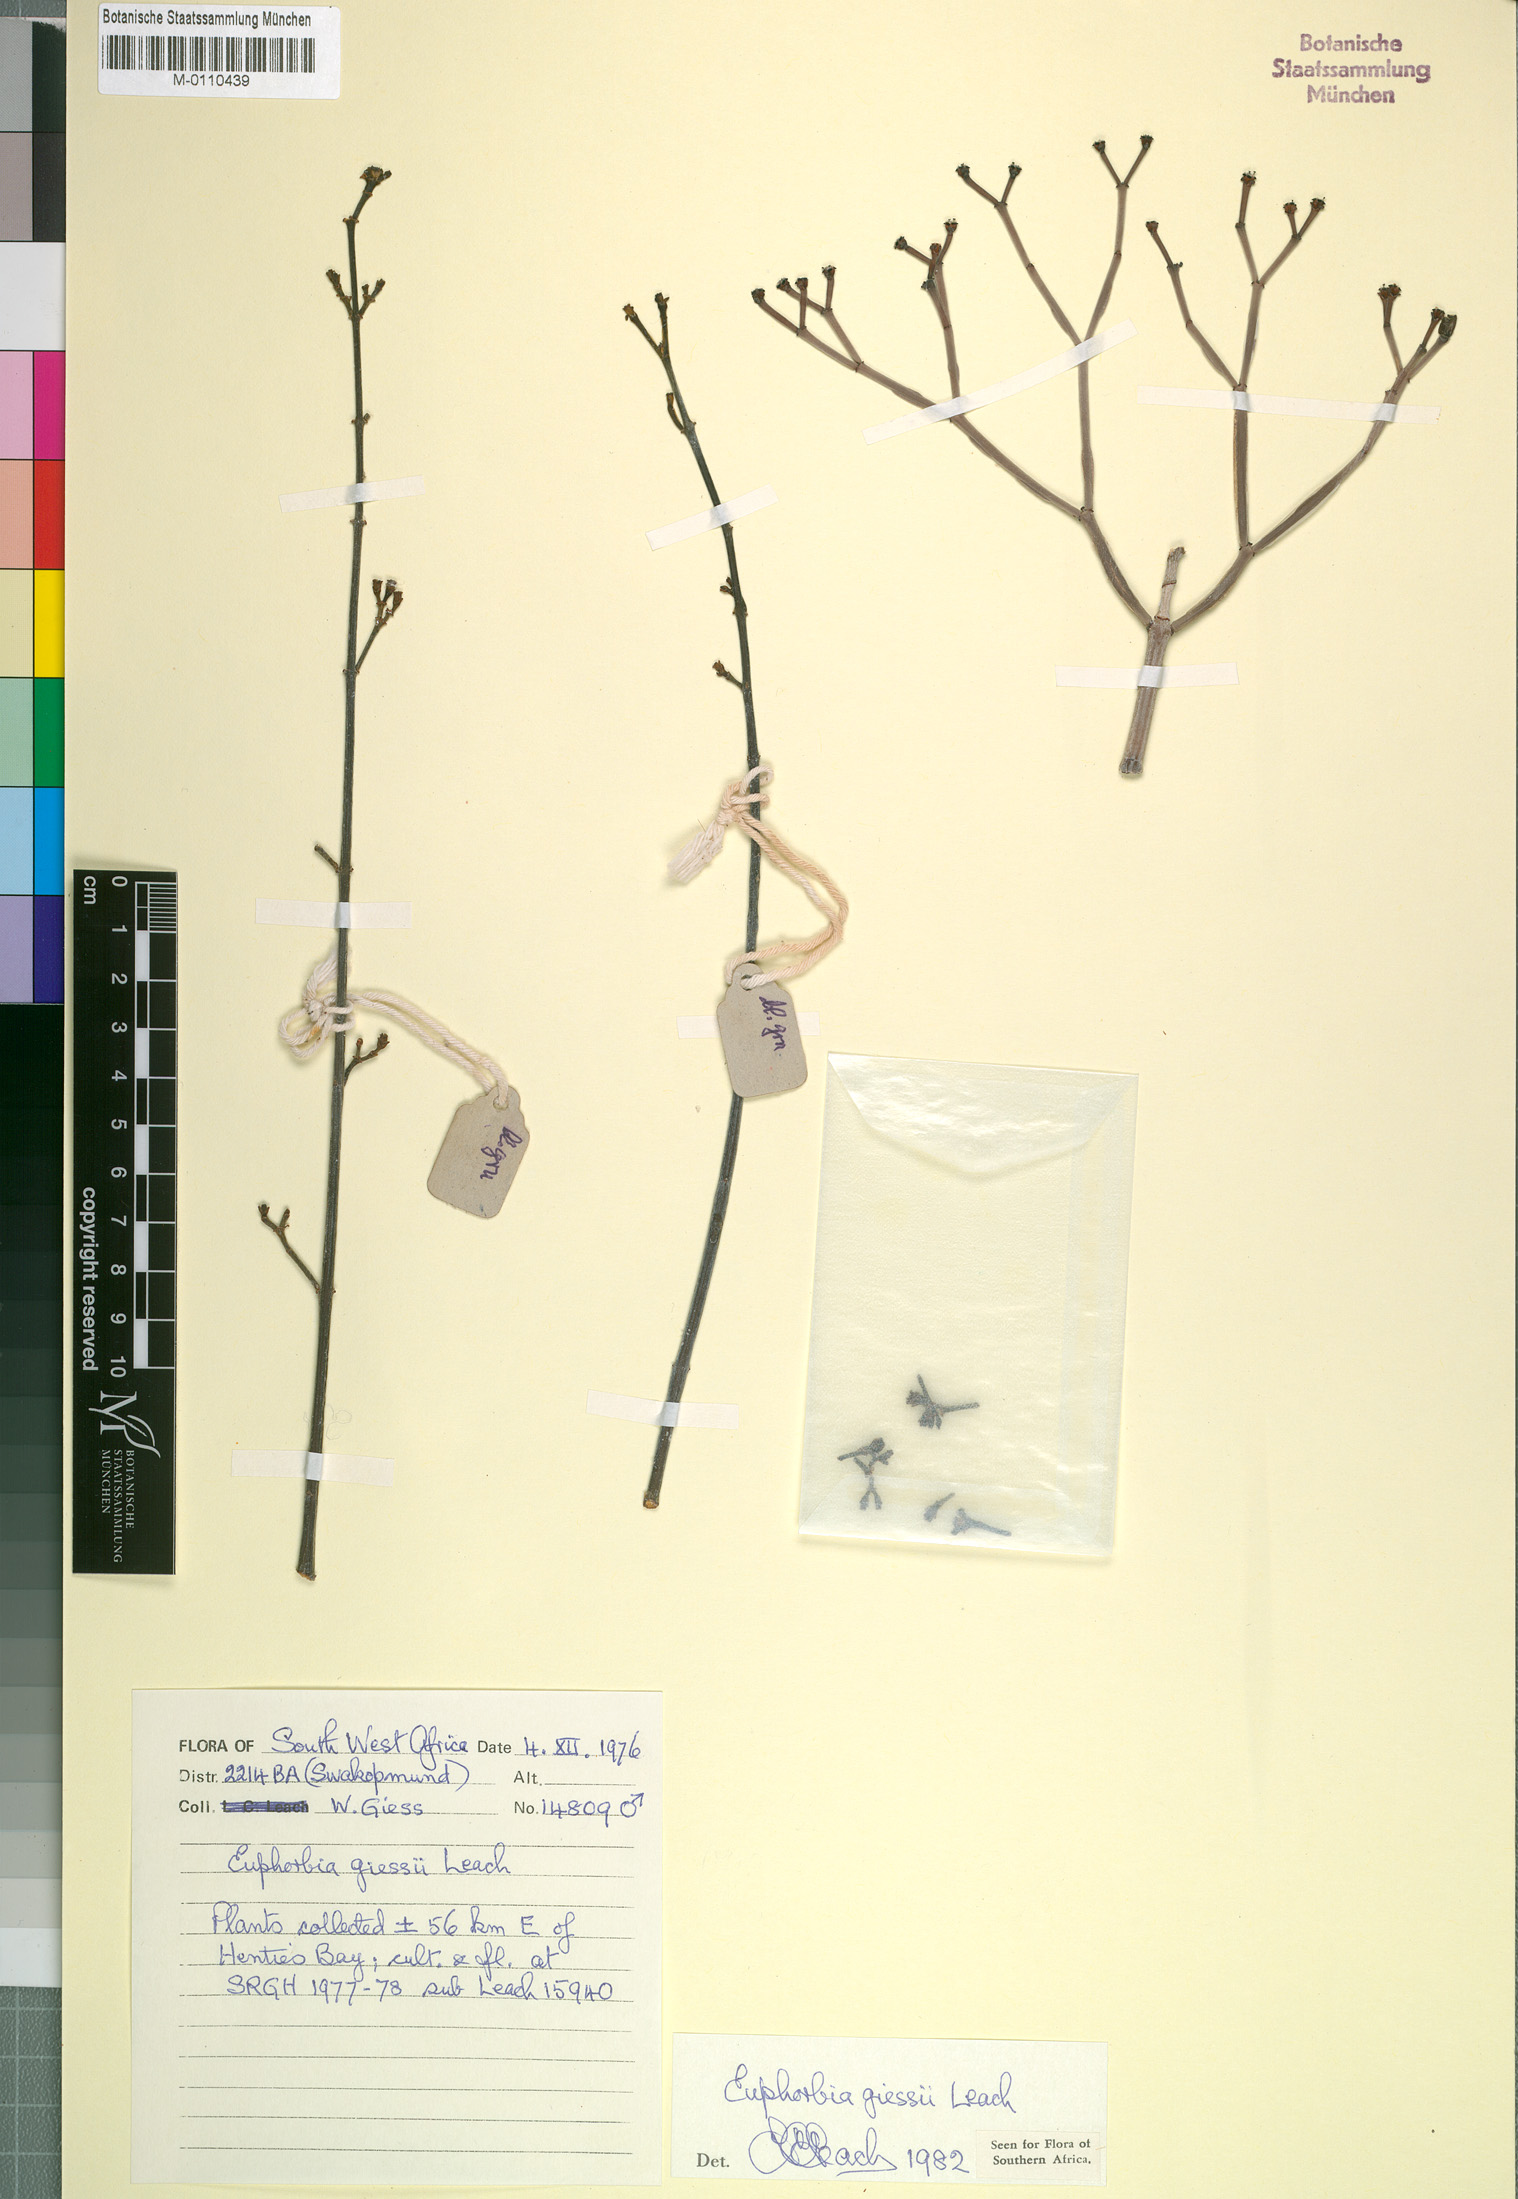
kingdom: Plantae
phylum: Tracheophyta
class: Magnoliopsida
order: Malpighiales
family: Euphorbiaceae
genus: Euphorbia
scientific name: Euphorbia giessii
